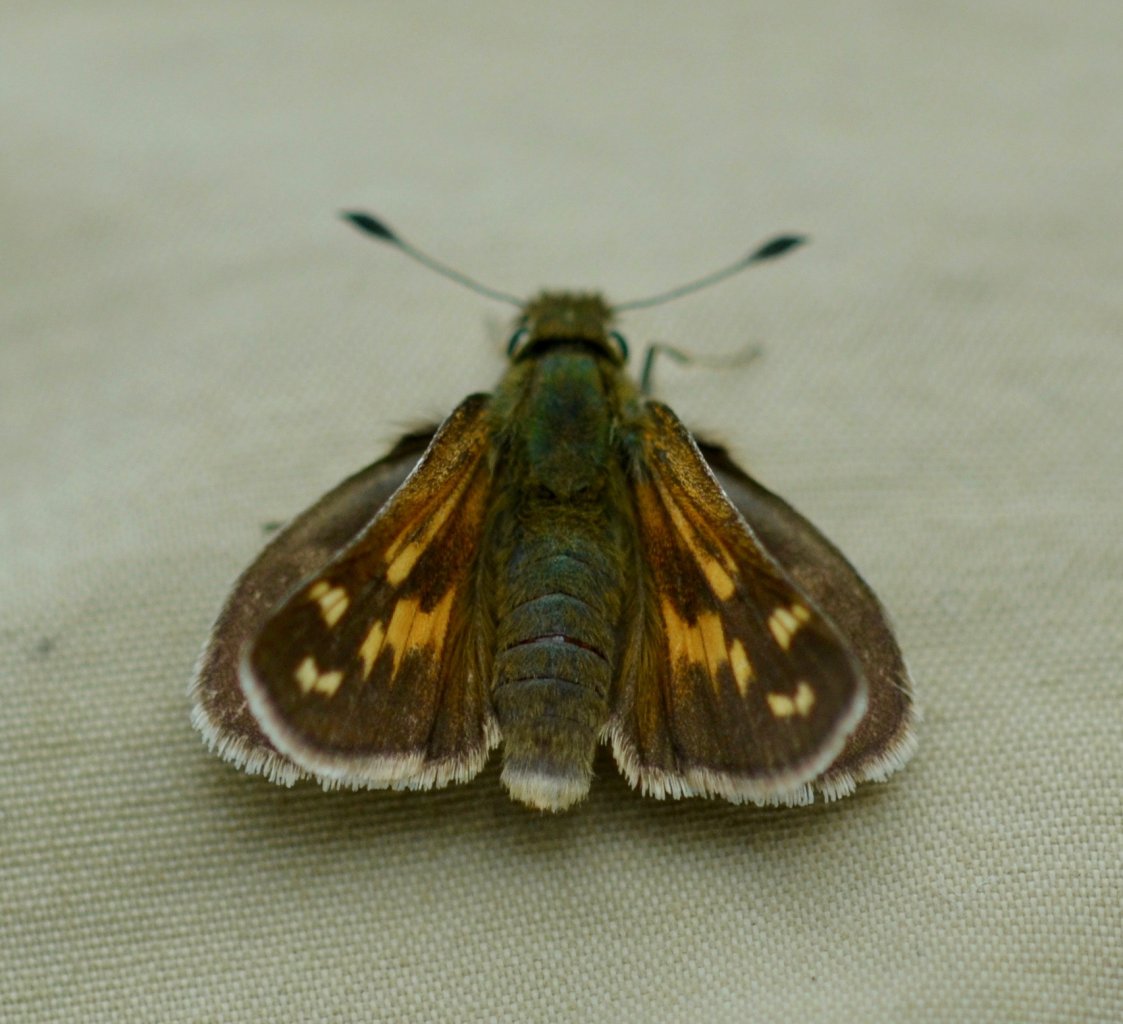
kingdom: Animalia
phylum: Arthropoda
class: Insecta
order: Lepidoptera
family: Hesperiidae
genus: Hesperia
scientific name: Hesperia comma
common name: Common Branded Skipper
